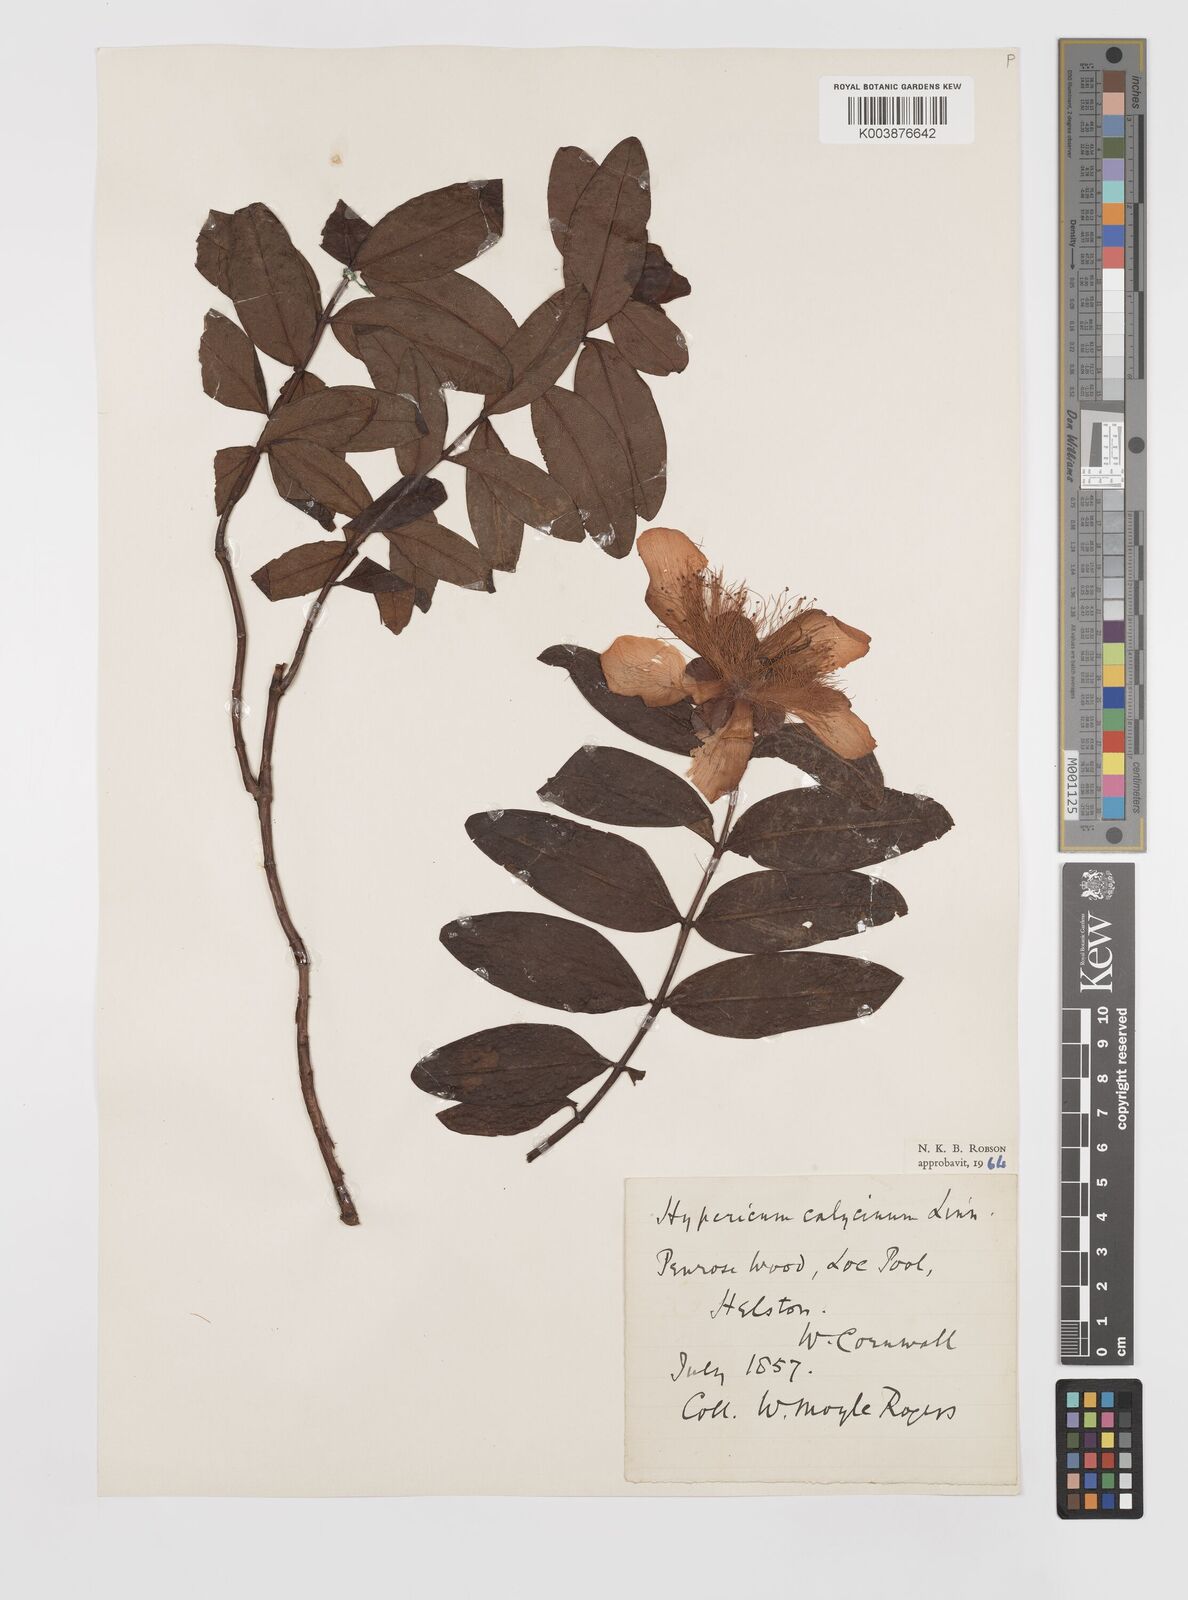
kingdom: Plantae
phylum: Tracheophyta
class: Magnoliopsida
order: Malpighiales
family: Hypericaceae
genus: Hypericum
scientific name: Hypericum calycinum
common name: Rose-of-sharon
